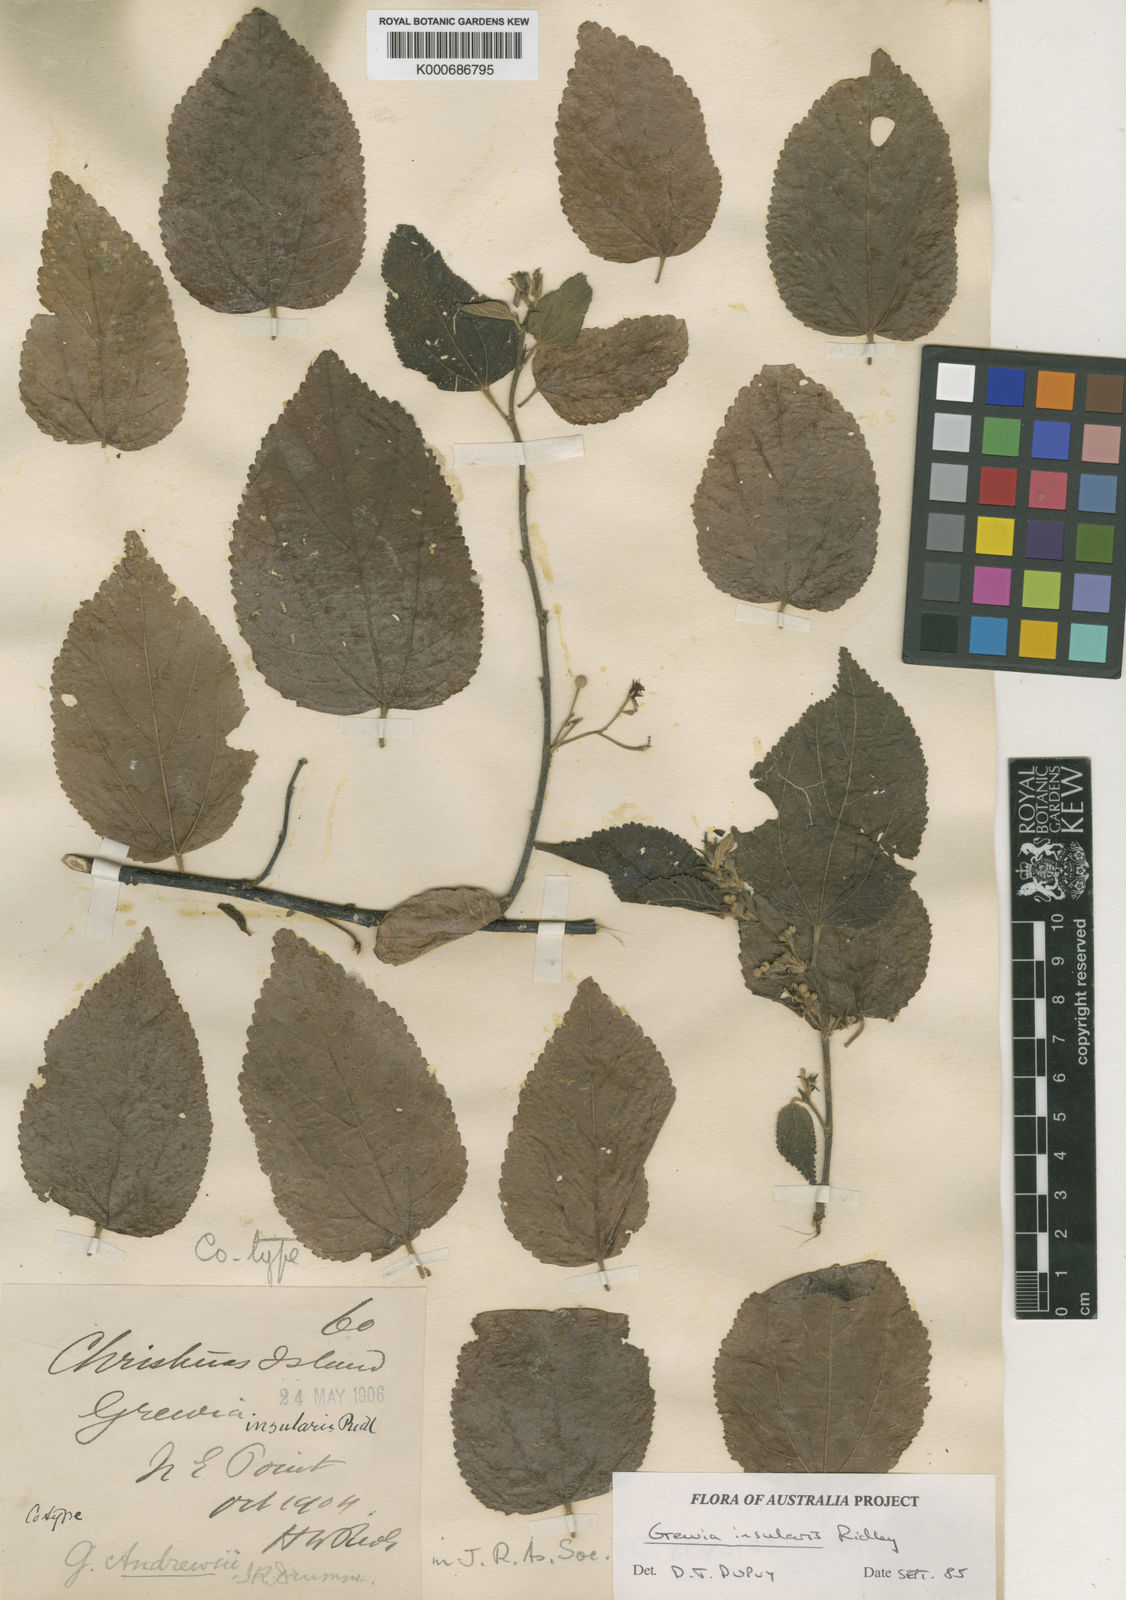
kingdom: Plantae
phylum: Tracheophyta
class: Magnoliopsida
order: Malvales
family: Malvaceae
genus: Grewia
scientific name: Grewia insularis
